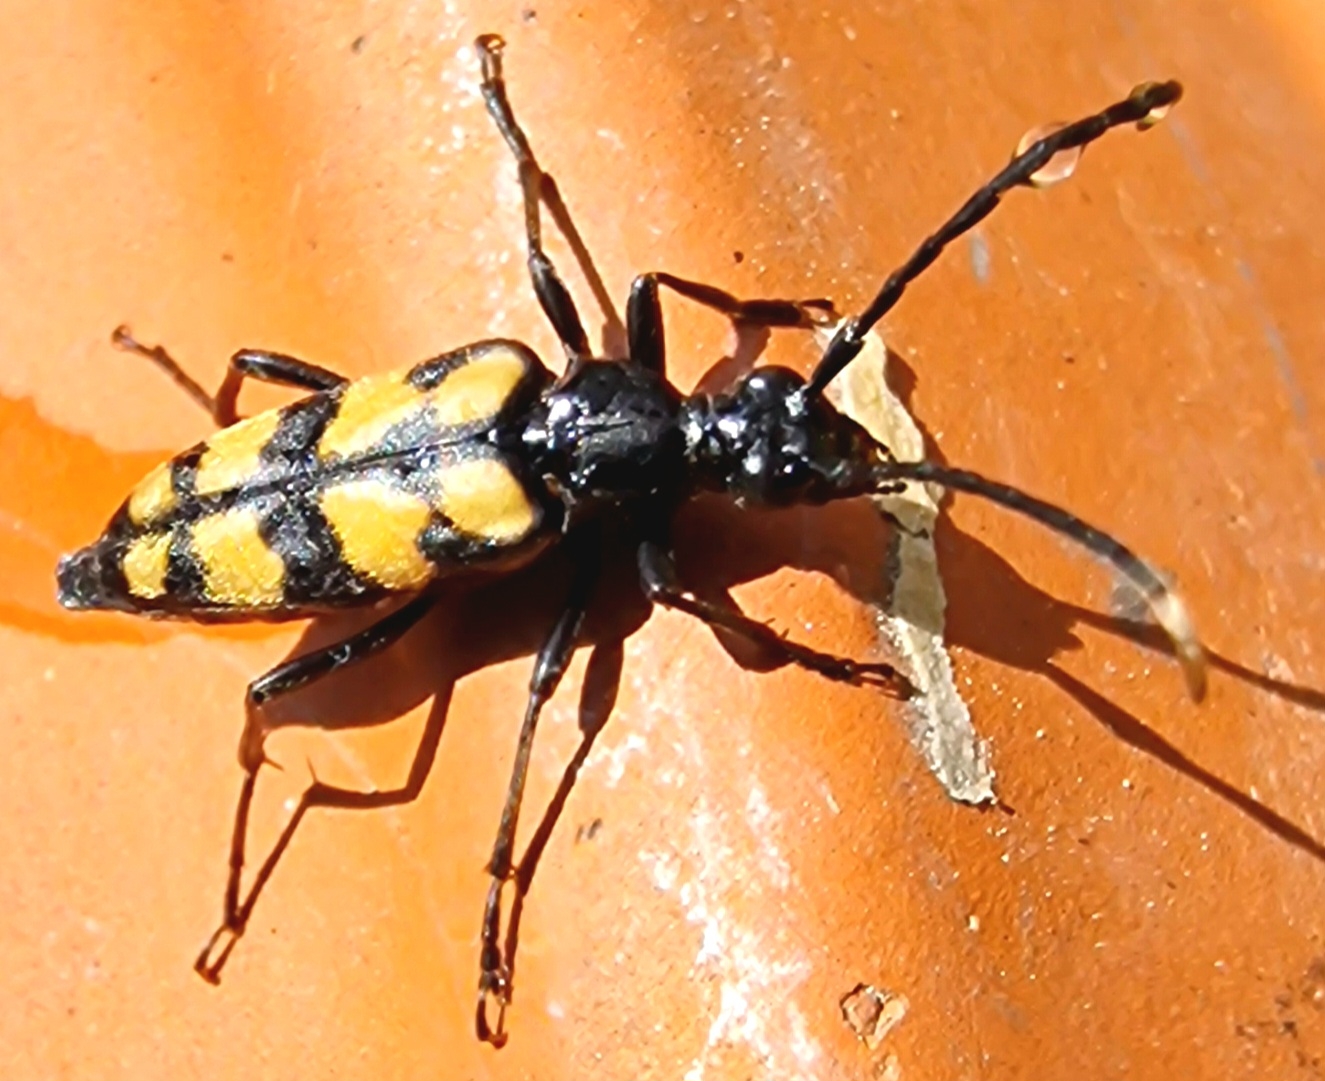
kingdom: Animalia
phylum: Arthropoda
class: Insecta
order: Coleoptera
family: Cerambycidae
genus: Leptura
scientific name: Leptura quadrifasciata
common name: Firebåndet blomsterbuk
